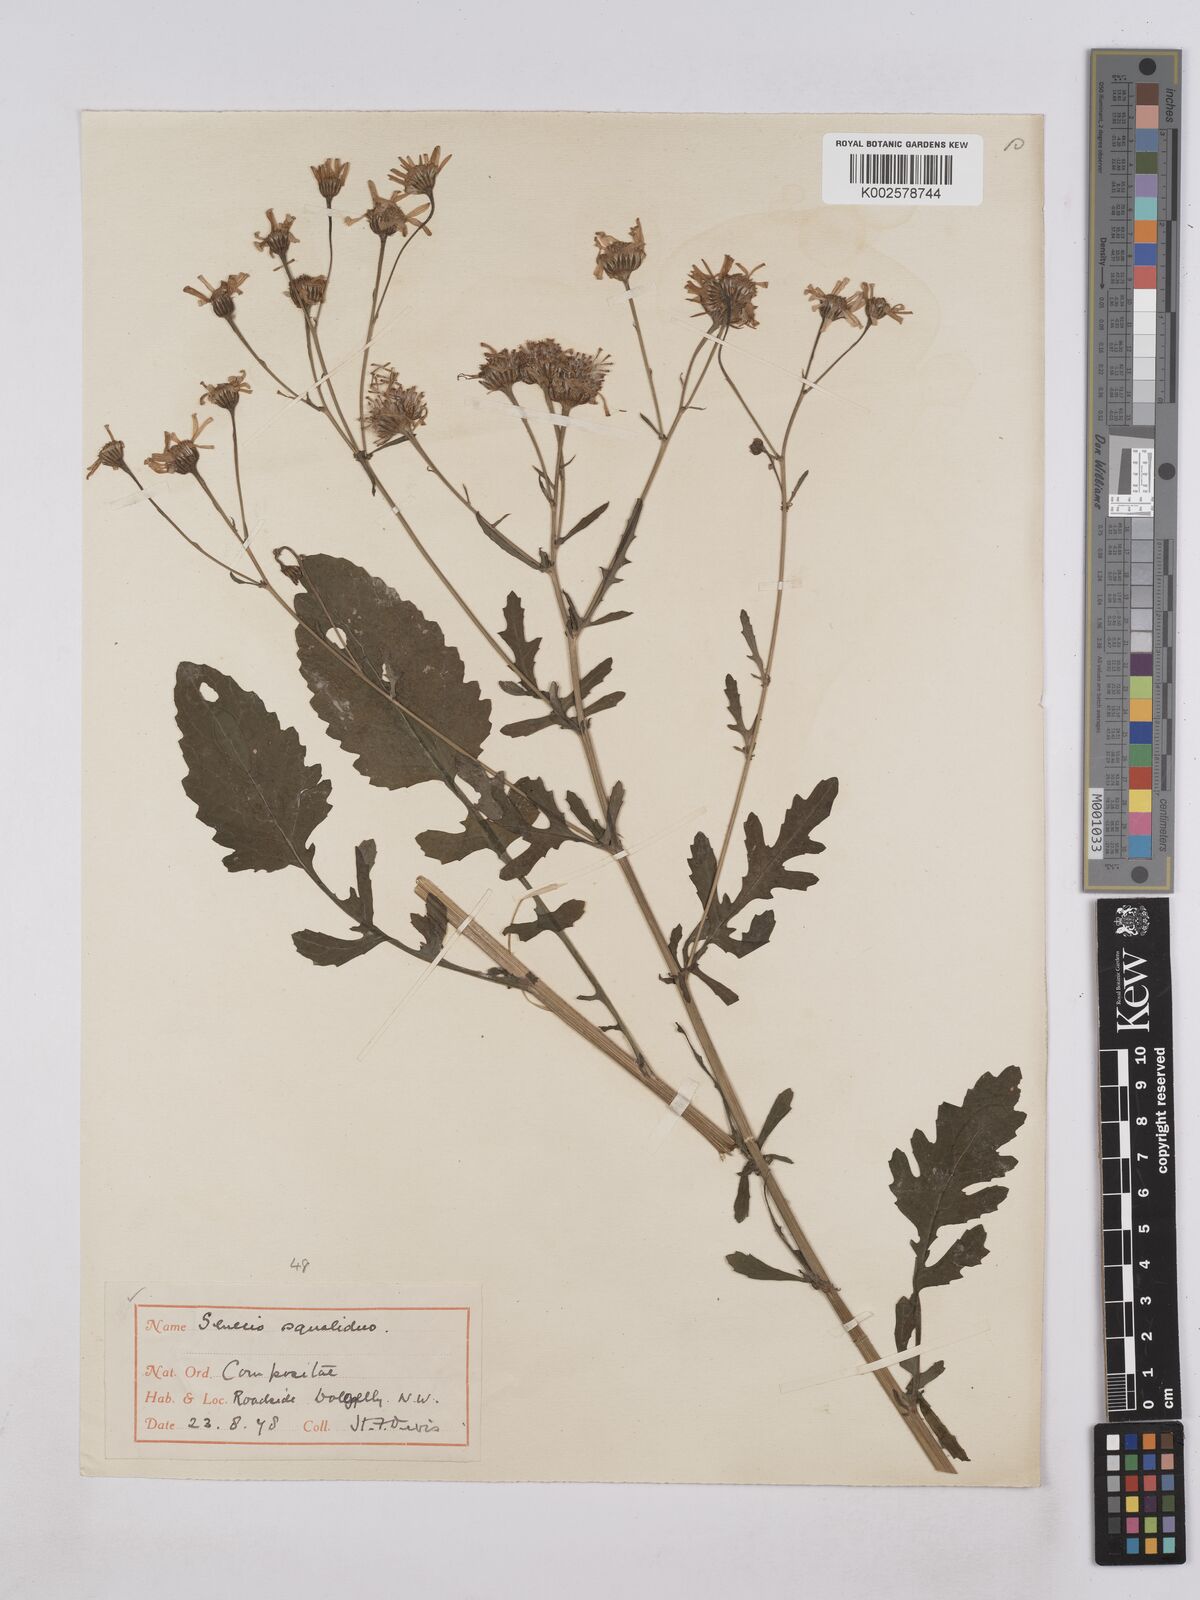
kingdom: Plantae
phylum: Tracheophyta
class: Magnoliopsida
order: Asterales
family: Asteraceae
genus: Jacobaea
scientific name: Jacobaea aquatica
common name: Water ragwort
